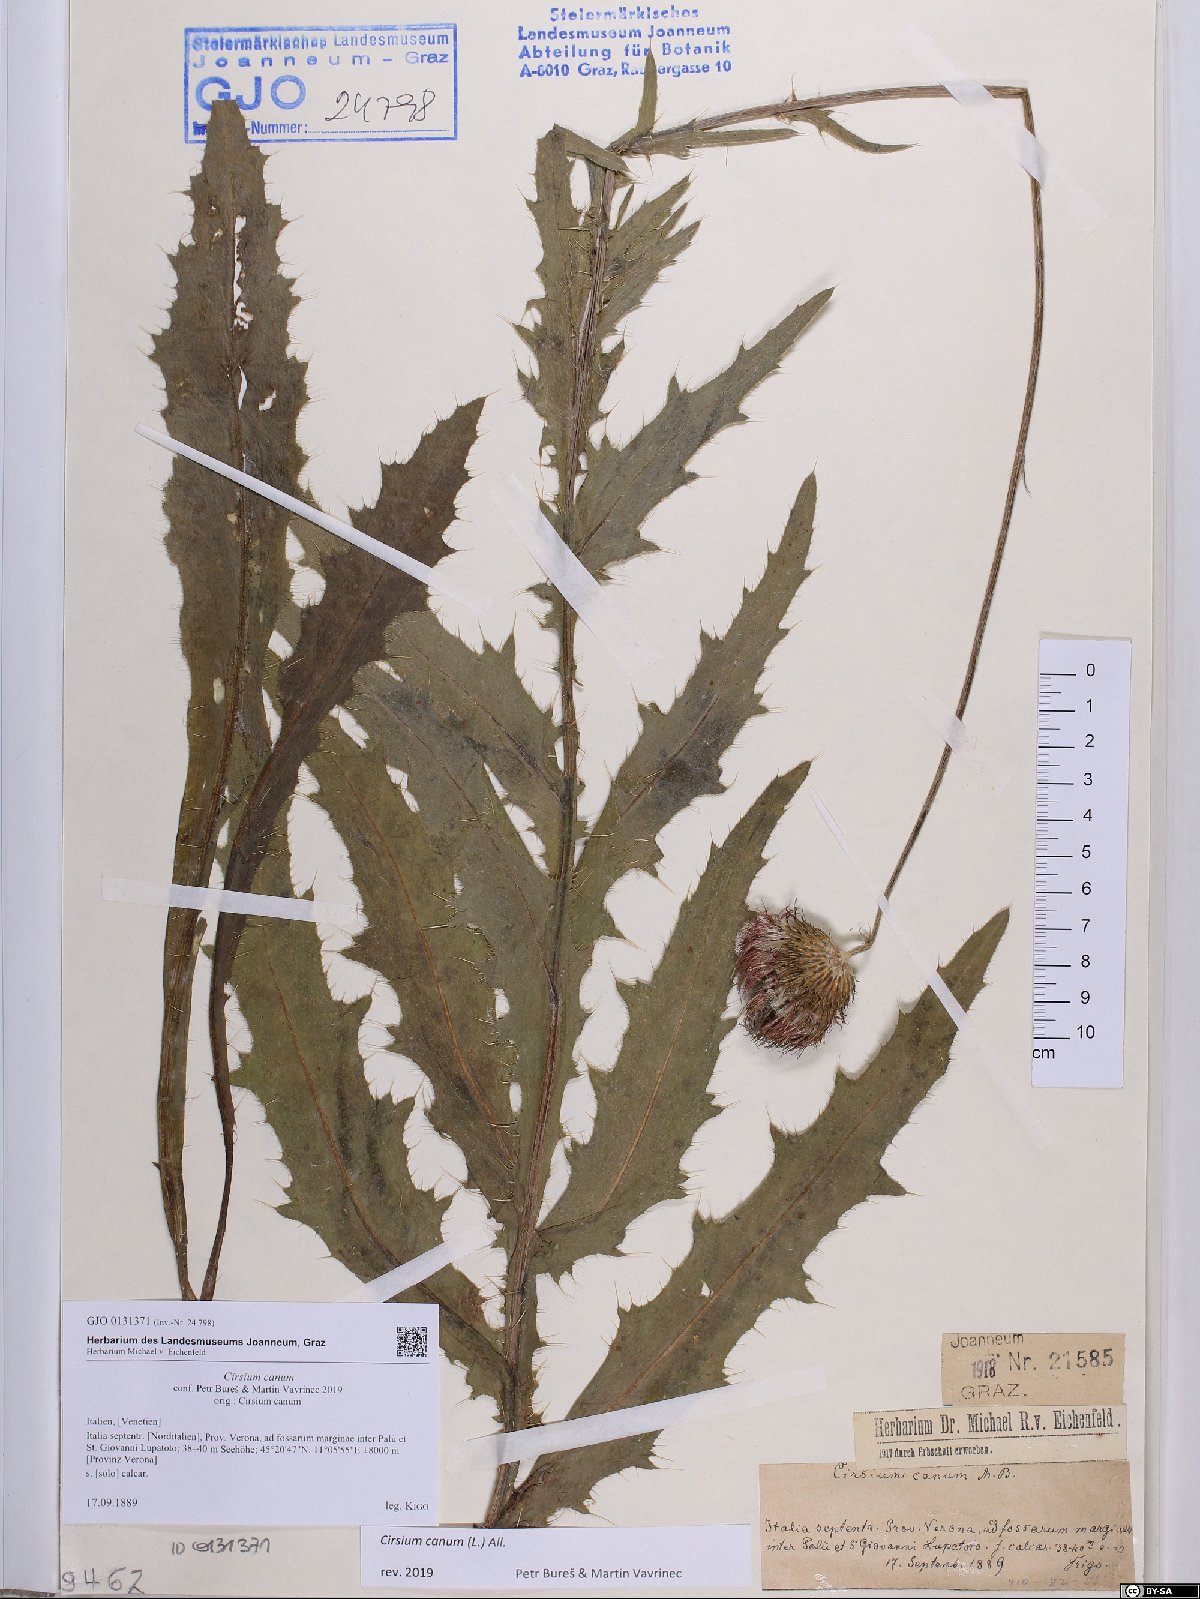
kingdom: Plantae
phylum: Tracheophyta
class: Magnoliopsida
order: Asterales
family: Asteraceae
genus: Cirsium
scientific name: Cirsium canum
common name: Queen anne's thistle
